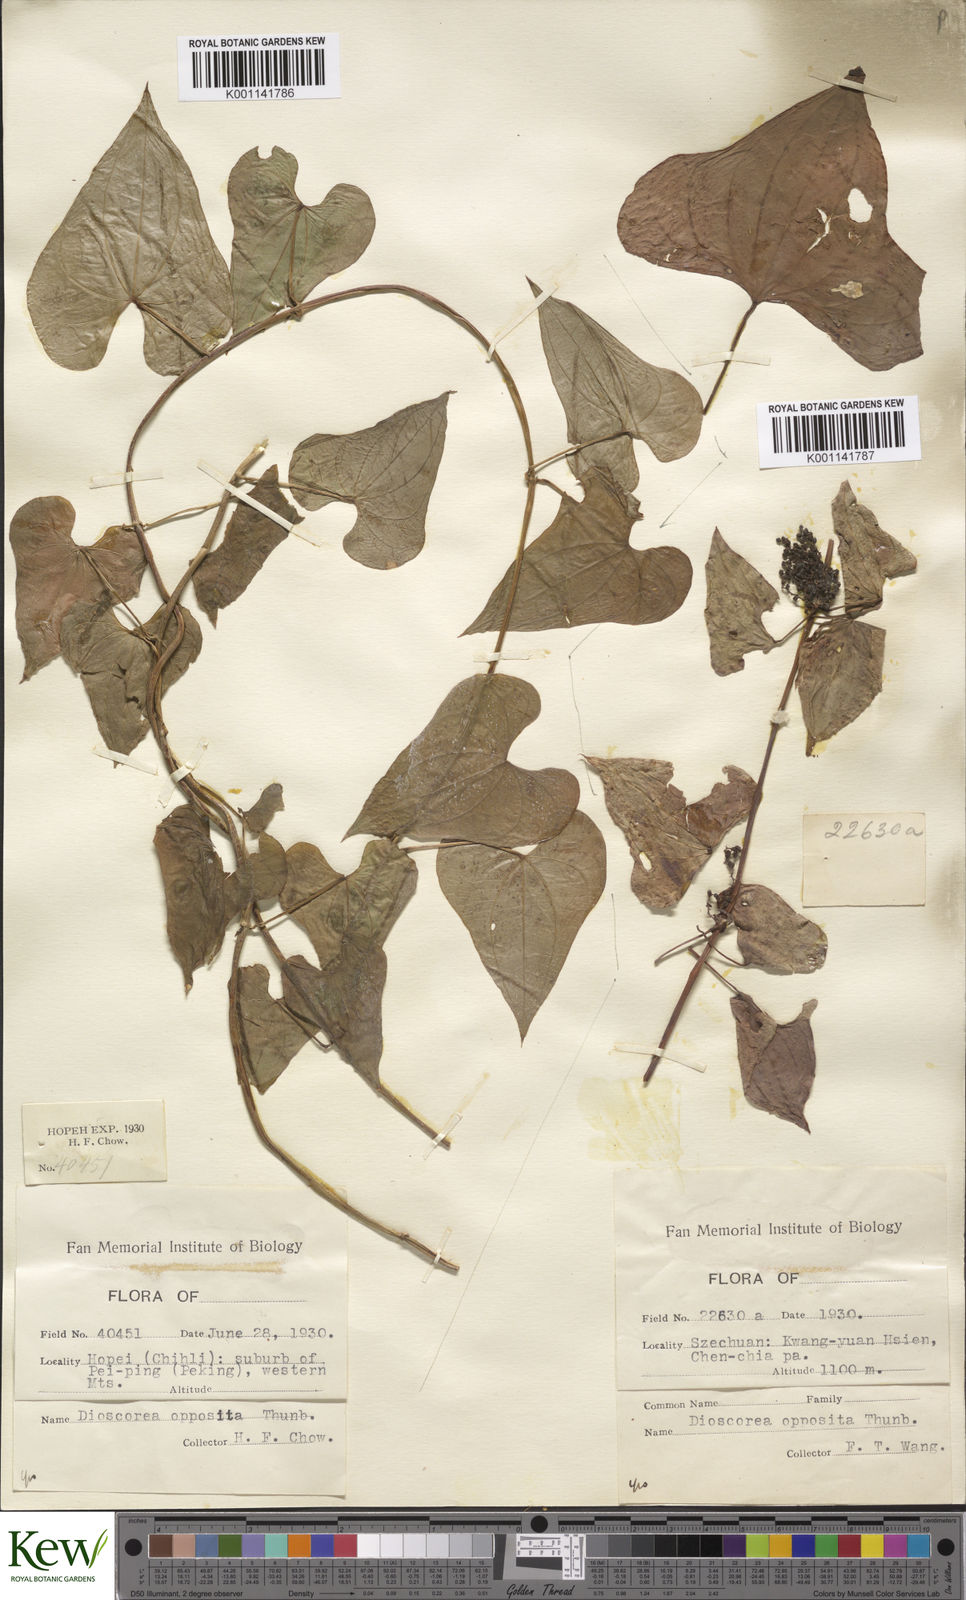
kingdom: Plantae
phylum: Tracheophyta
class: Liliopsida
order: Dioscoreales
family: Dioscoreaceae
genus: Dioscorea
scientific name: Dioscorea oppositifolia
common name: Chinese yam
